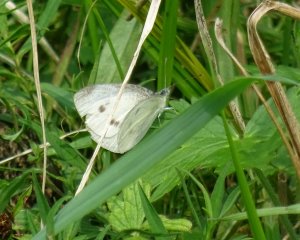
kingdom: Animalia
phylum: Arthropoda
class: Insecta
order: Lepidoptera
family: Pieridae
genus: Pieris
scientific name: Pieris rapae
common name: Cabbage White
